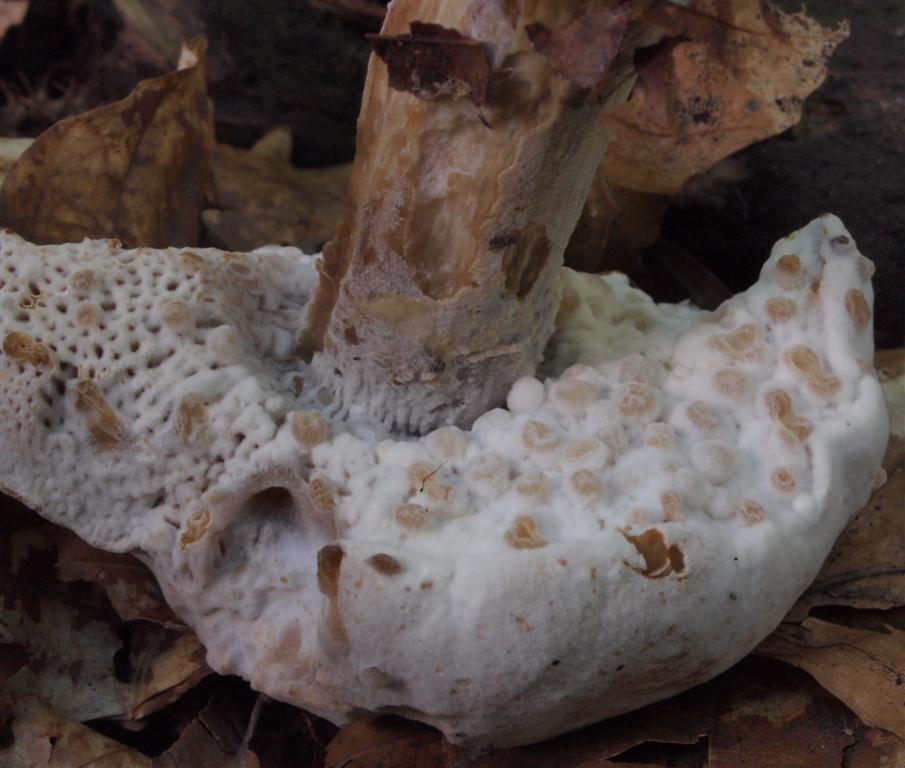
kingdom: Fungi
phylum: Ascomycota
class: Sordariomycetes
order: Hypocreales
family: Hypocreaceae
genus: Hypomyces
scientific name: Hypomyces microspermus
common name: dværgrørhat-snylteskorpe
